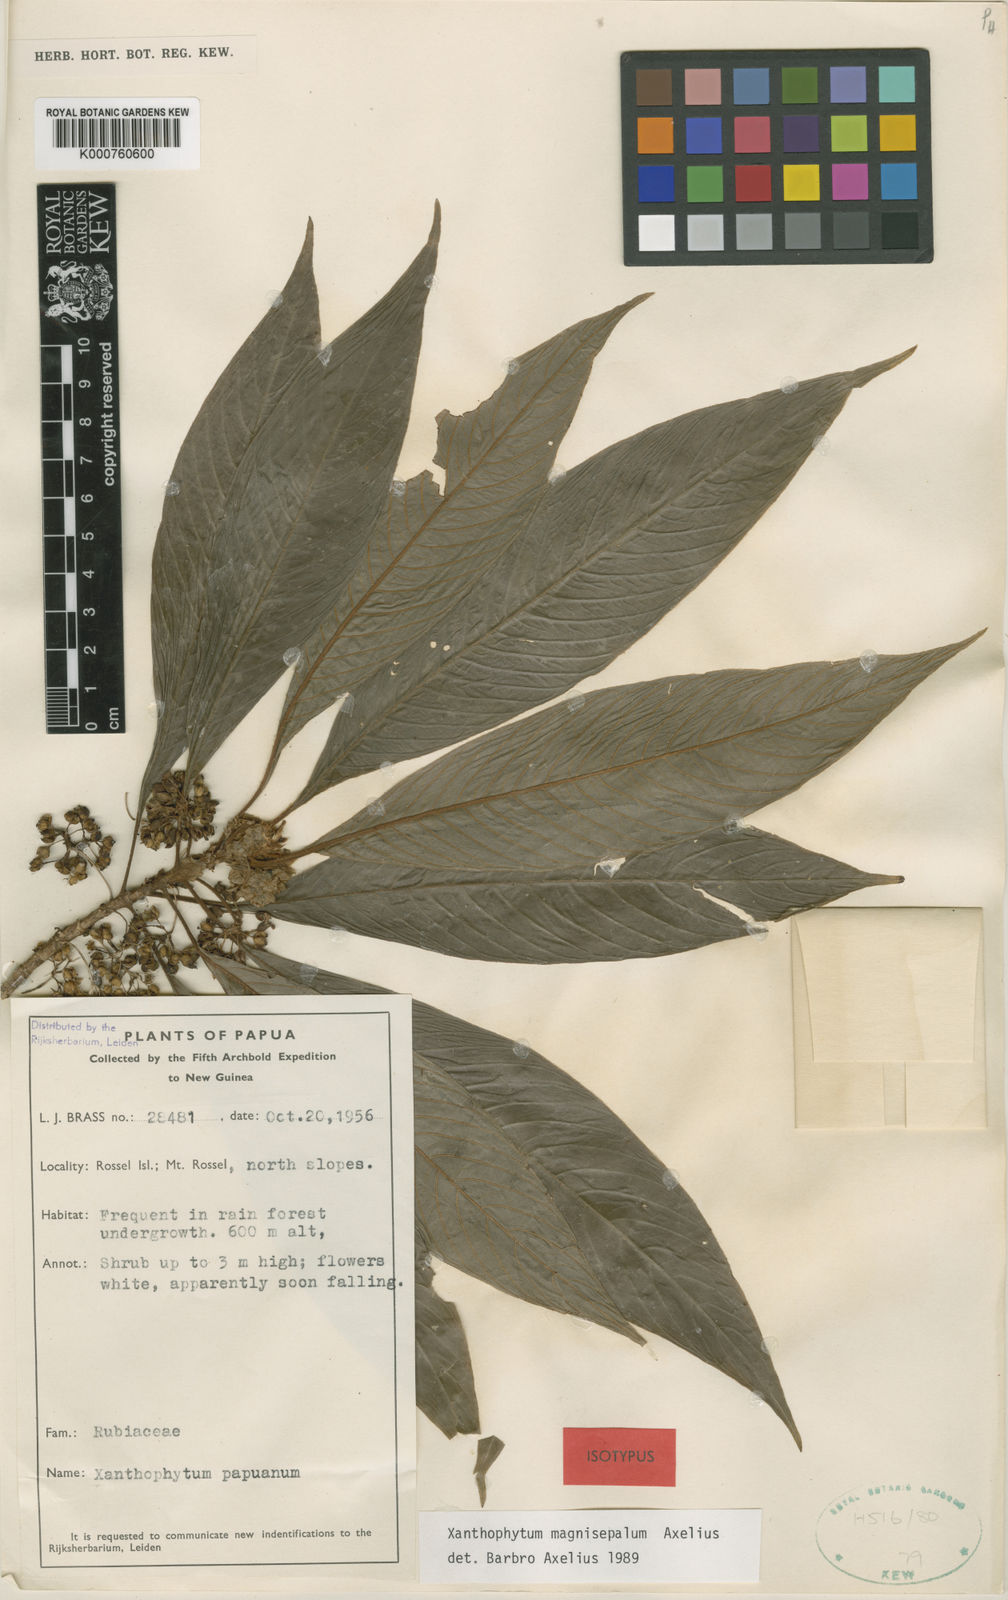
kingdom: Plantae
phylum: Tracheophyta
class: Magnoliopsida
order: Gentianales
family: Rubiaceae
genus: Xanthophytum
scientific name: Xanthophytum magnisepalum
